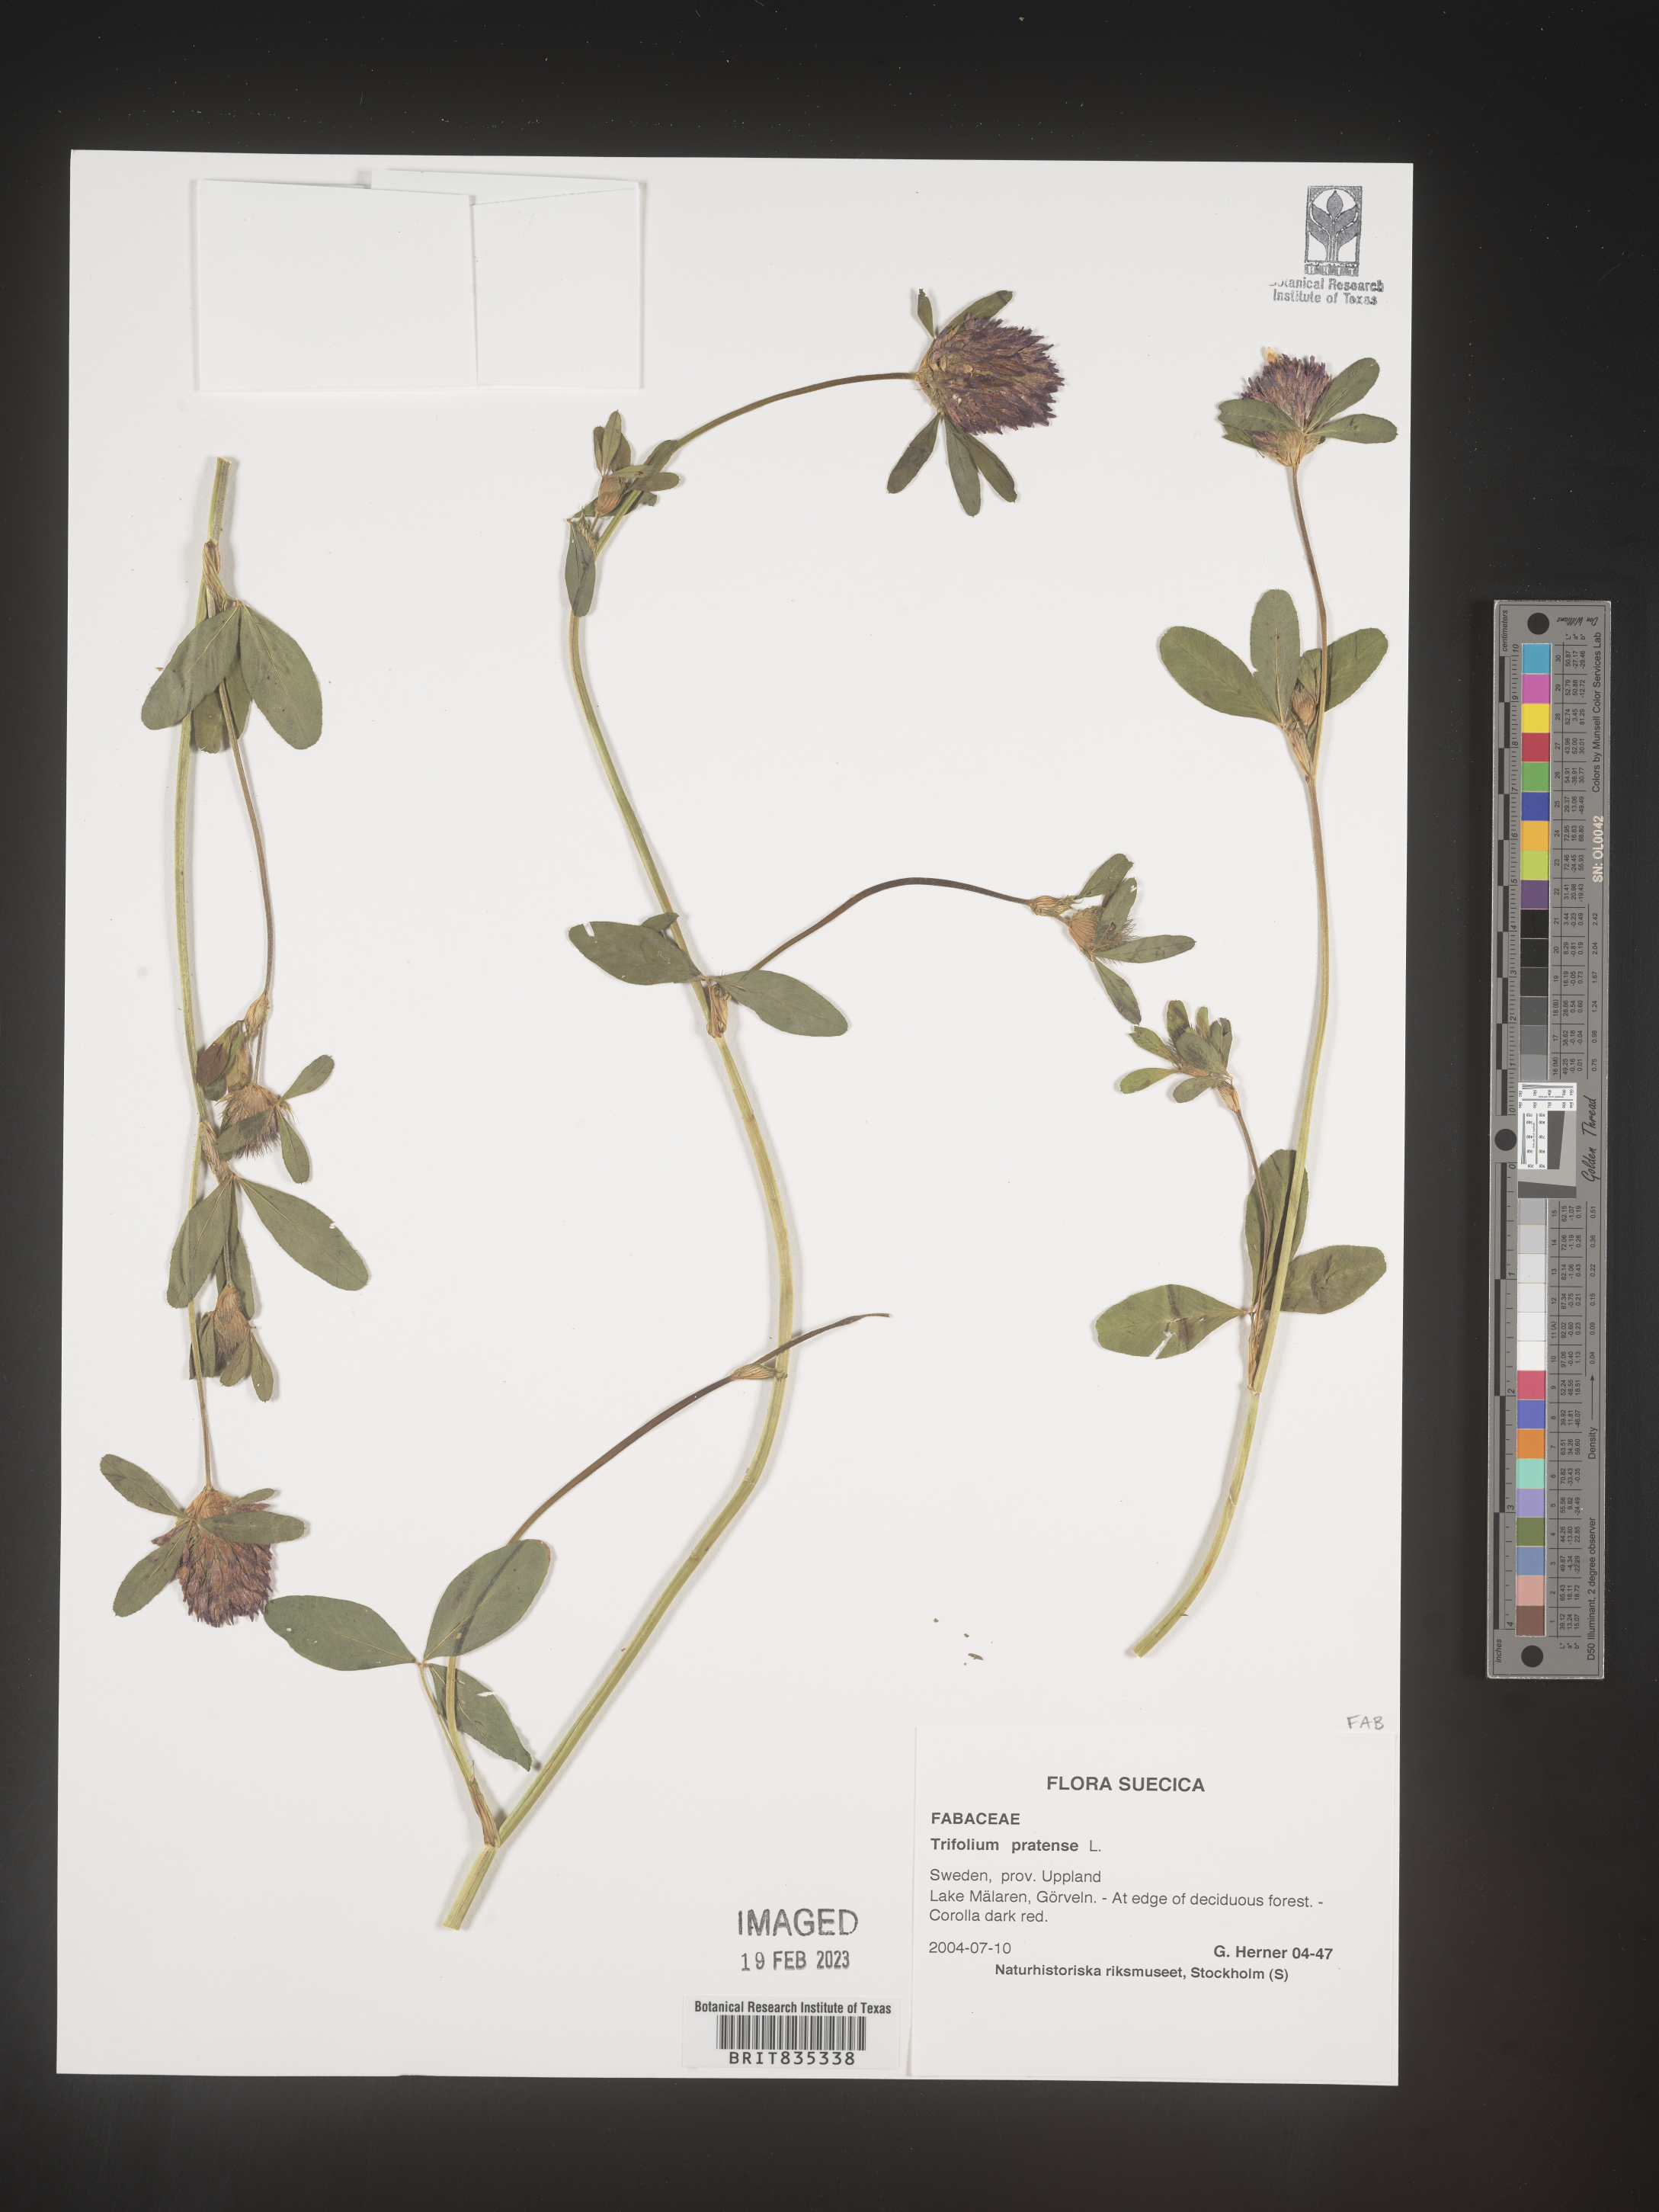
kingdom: Plantae
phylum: Tracheophyta
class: Magnoliopsida
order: Fabales
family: Fabaceae
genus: Trifolium
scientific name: Trifolium
